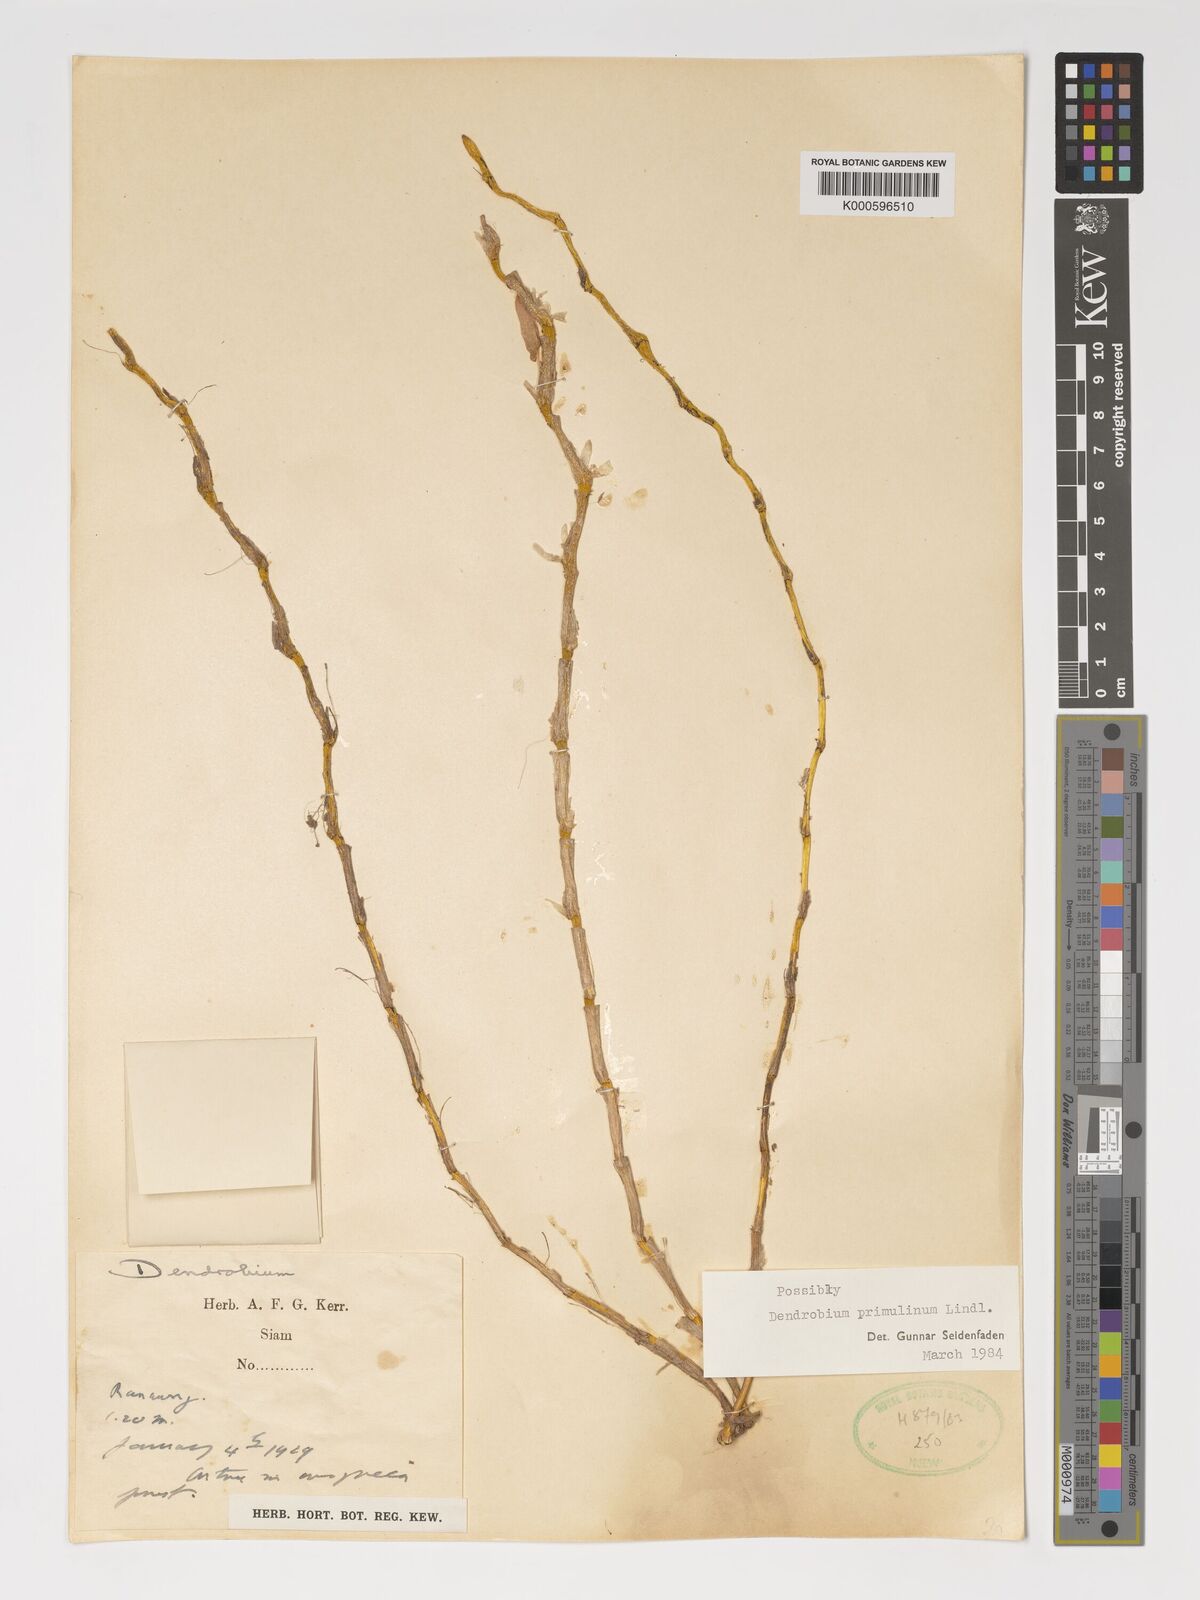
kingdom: Plantae
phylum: Tracheophyta
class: Liliopsida
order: Asparagales
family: Orchidaceae
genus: Dendrobium
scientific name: Dendrobium polyanthum
